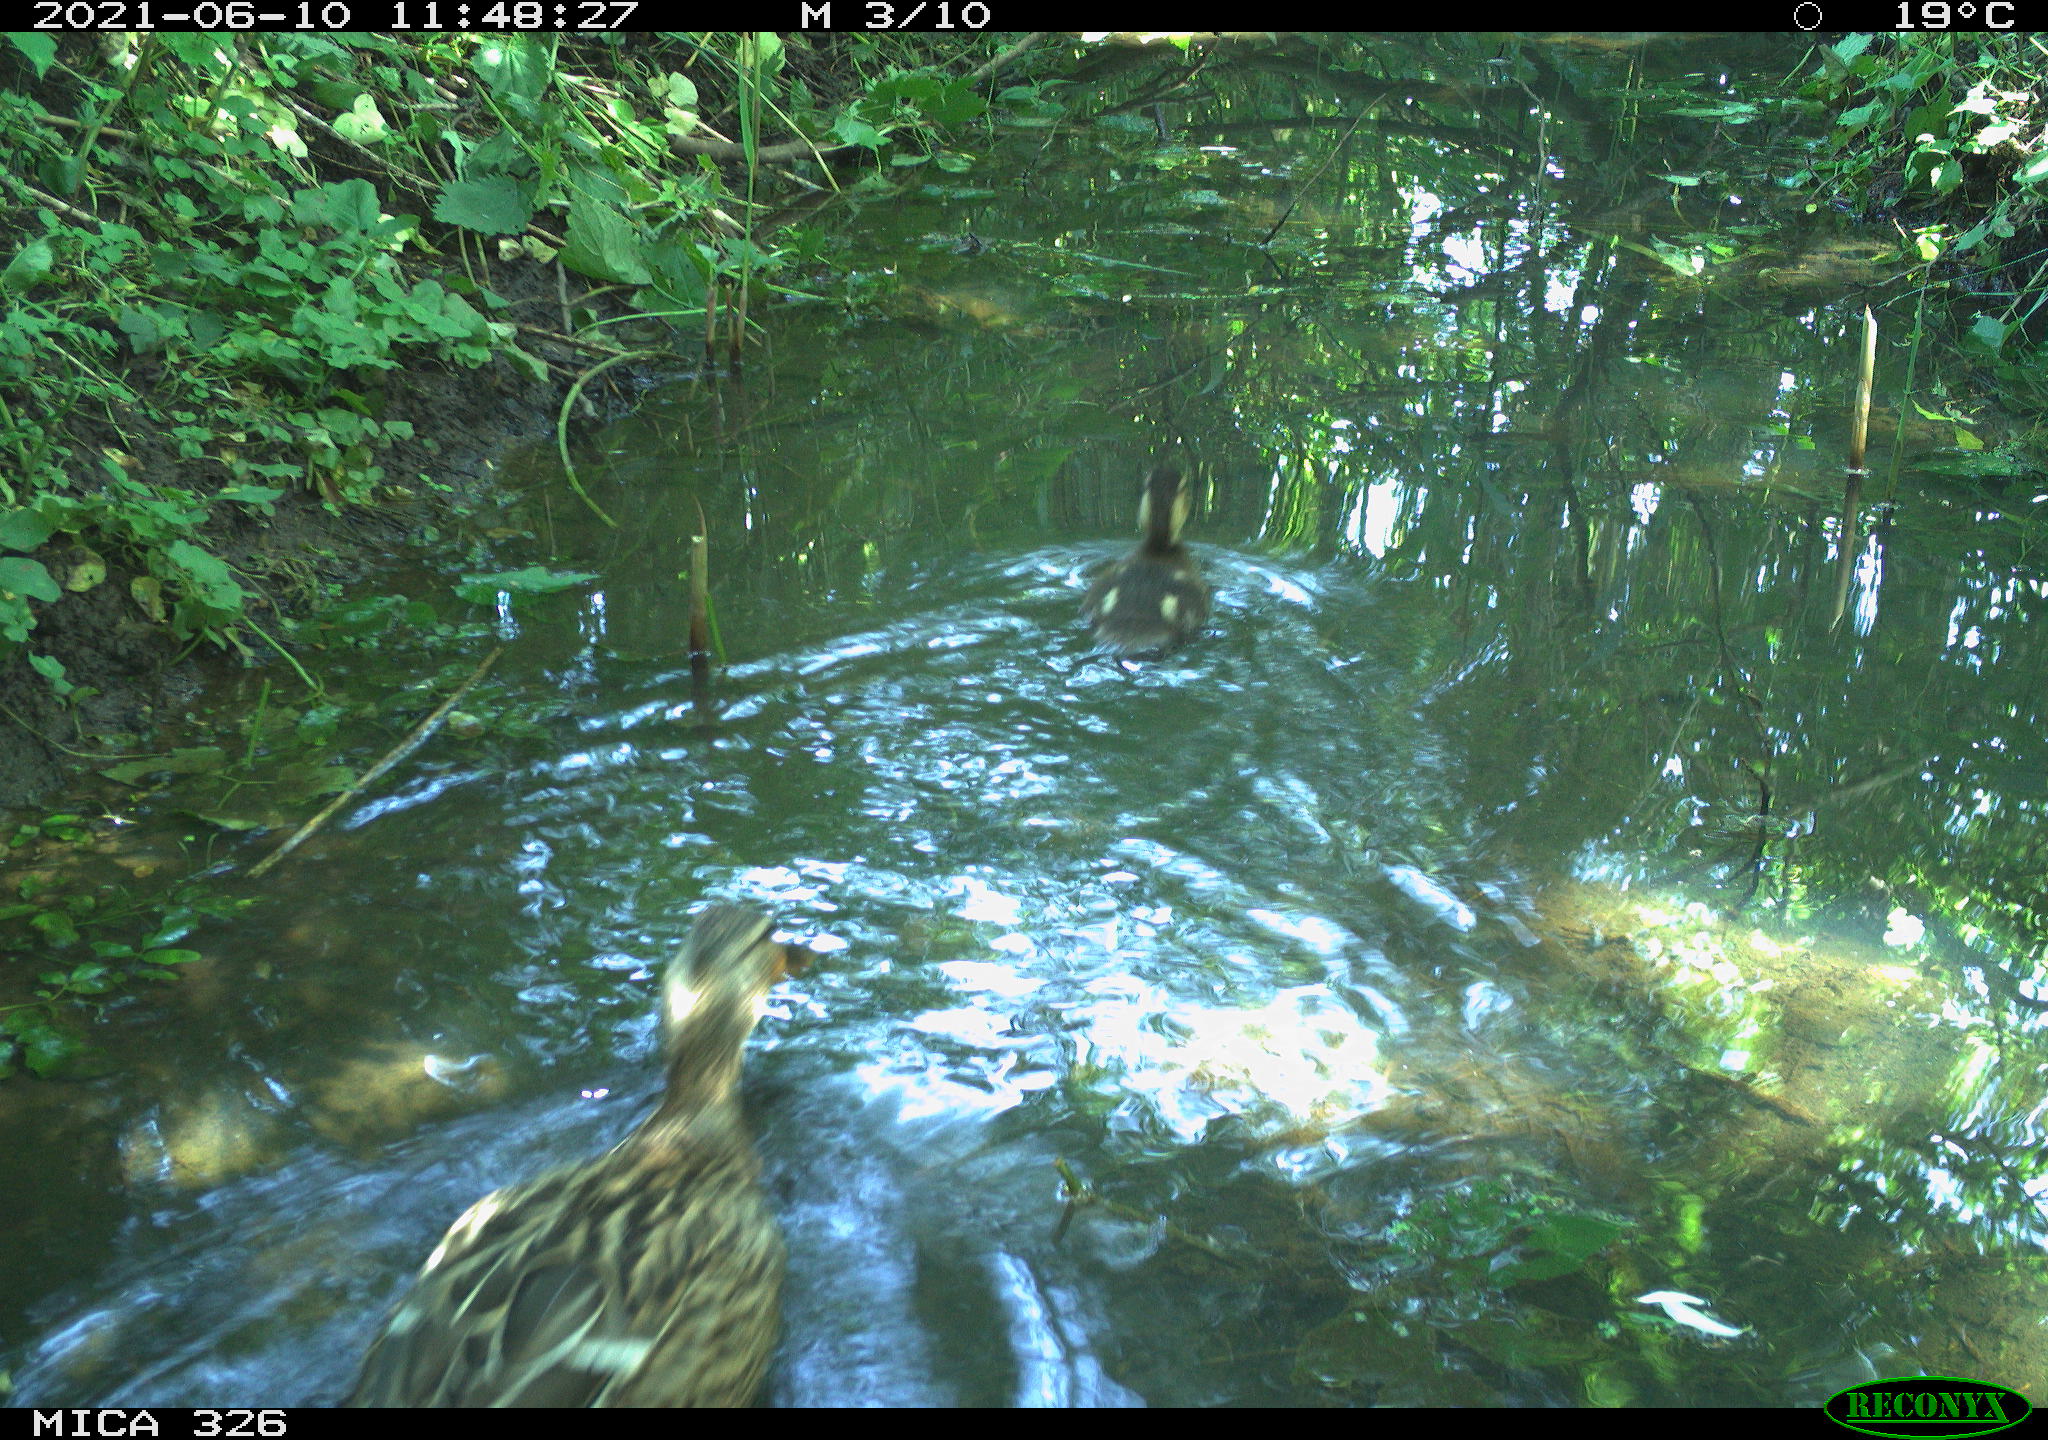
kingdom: Animalia
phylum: Chordata
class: Aves
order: Anseriformes
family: Anatidae
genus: Anas
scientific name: Anas platyrhynchos
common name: Mallard
